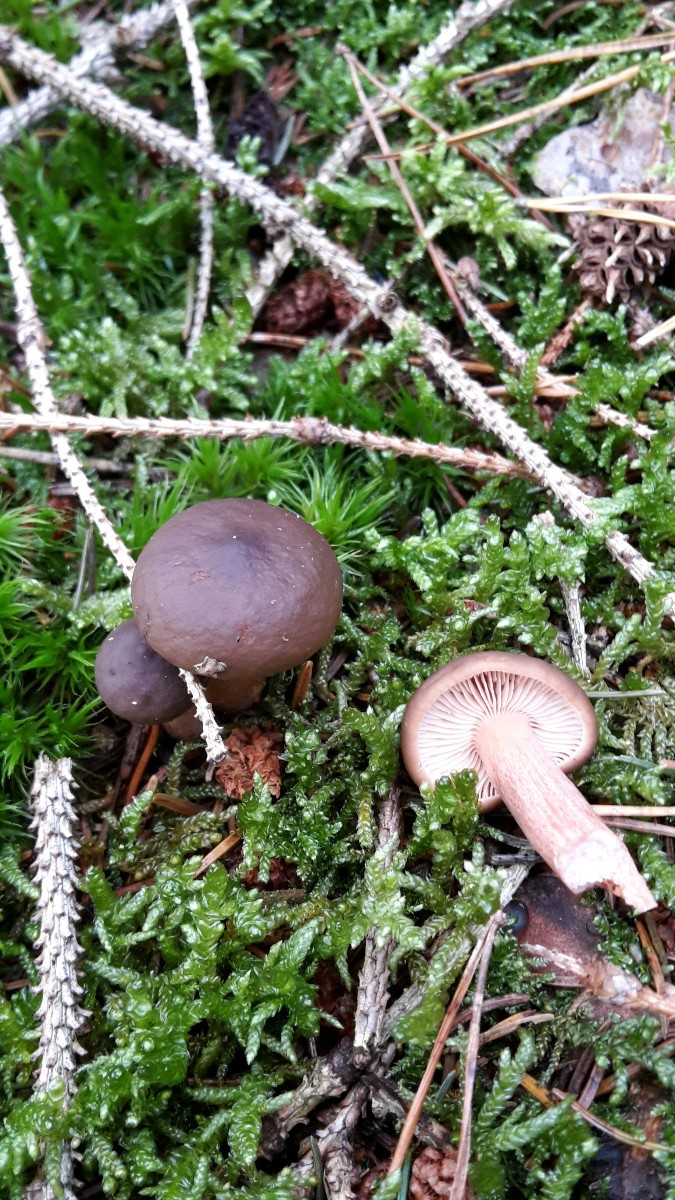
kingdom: Fungi
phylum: Basidiomycota
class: Agaricomycetes
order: Russulales
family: Russulaceae
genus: Lactarius
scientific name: Lactarius hepaticus
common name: leverbrun mælkehat
